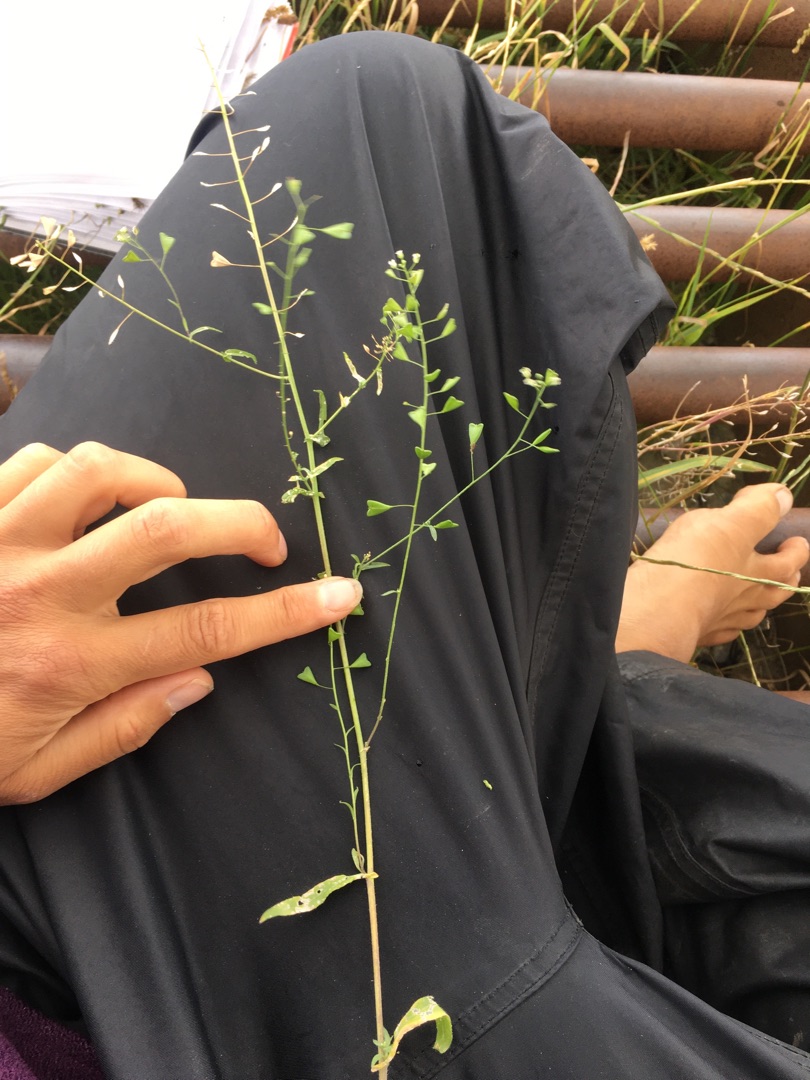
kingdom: Plantae
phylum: Tracheophyta
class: Magnoliopsida
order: Brassicales
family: Brassicaceae
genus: Capsella
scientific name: Capsella bursa-pastoris
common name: Hyrdetaske
